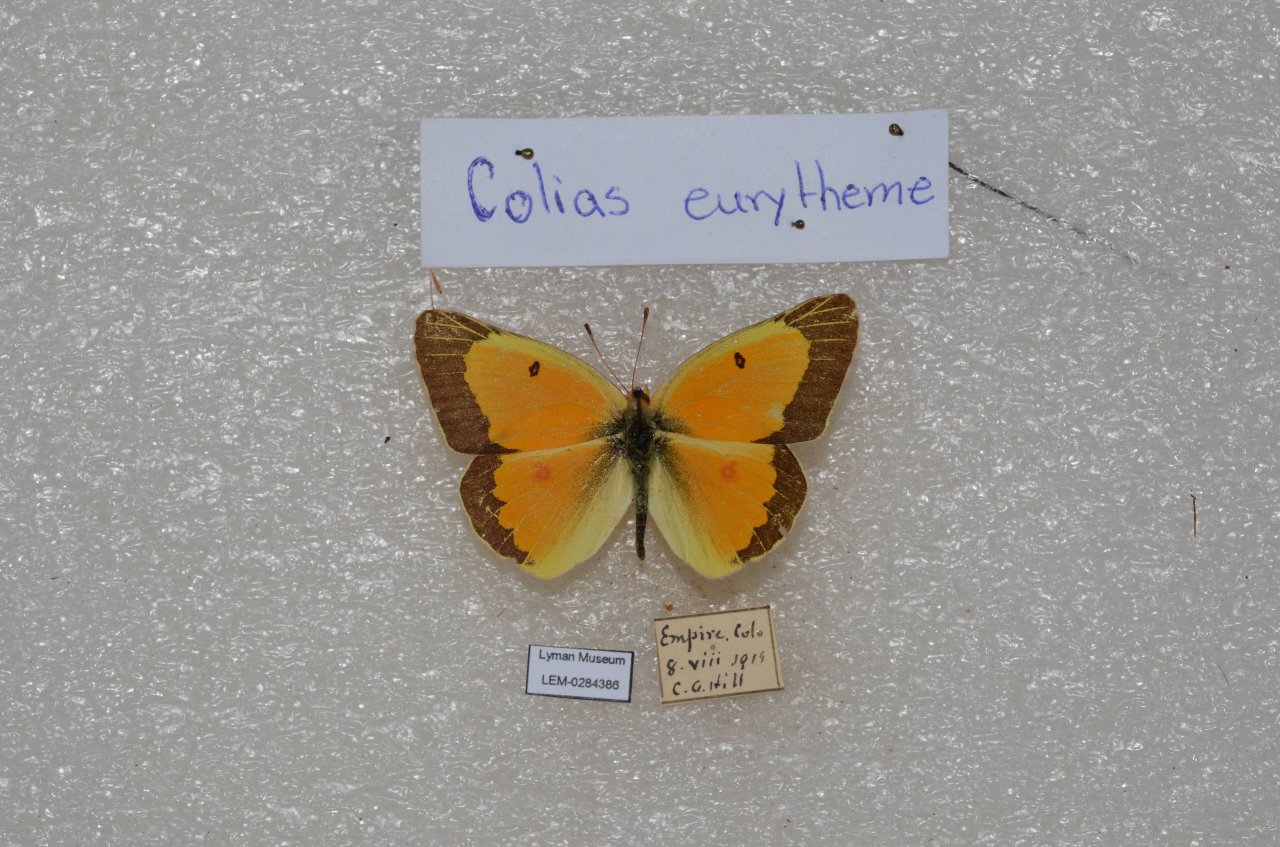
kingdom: Animalia
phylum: Arthropoda
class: Insecta
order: Lepidoptera
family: Pieridae
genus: Colias
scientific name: Colias eurytheme
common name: Orange Sulphur
